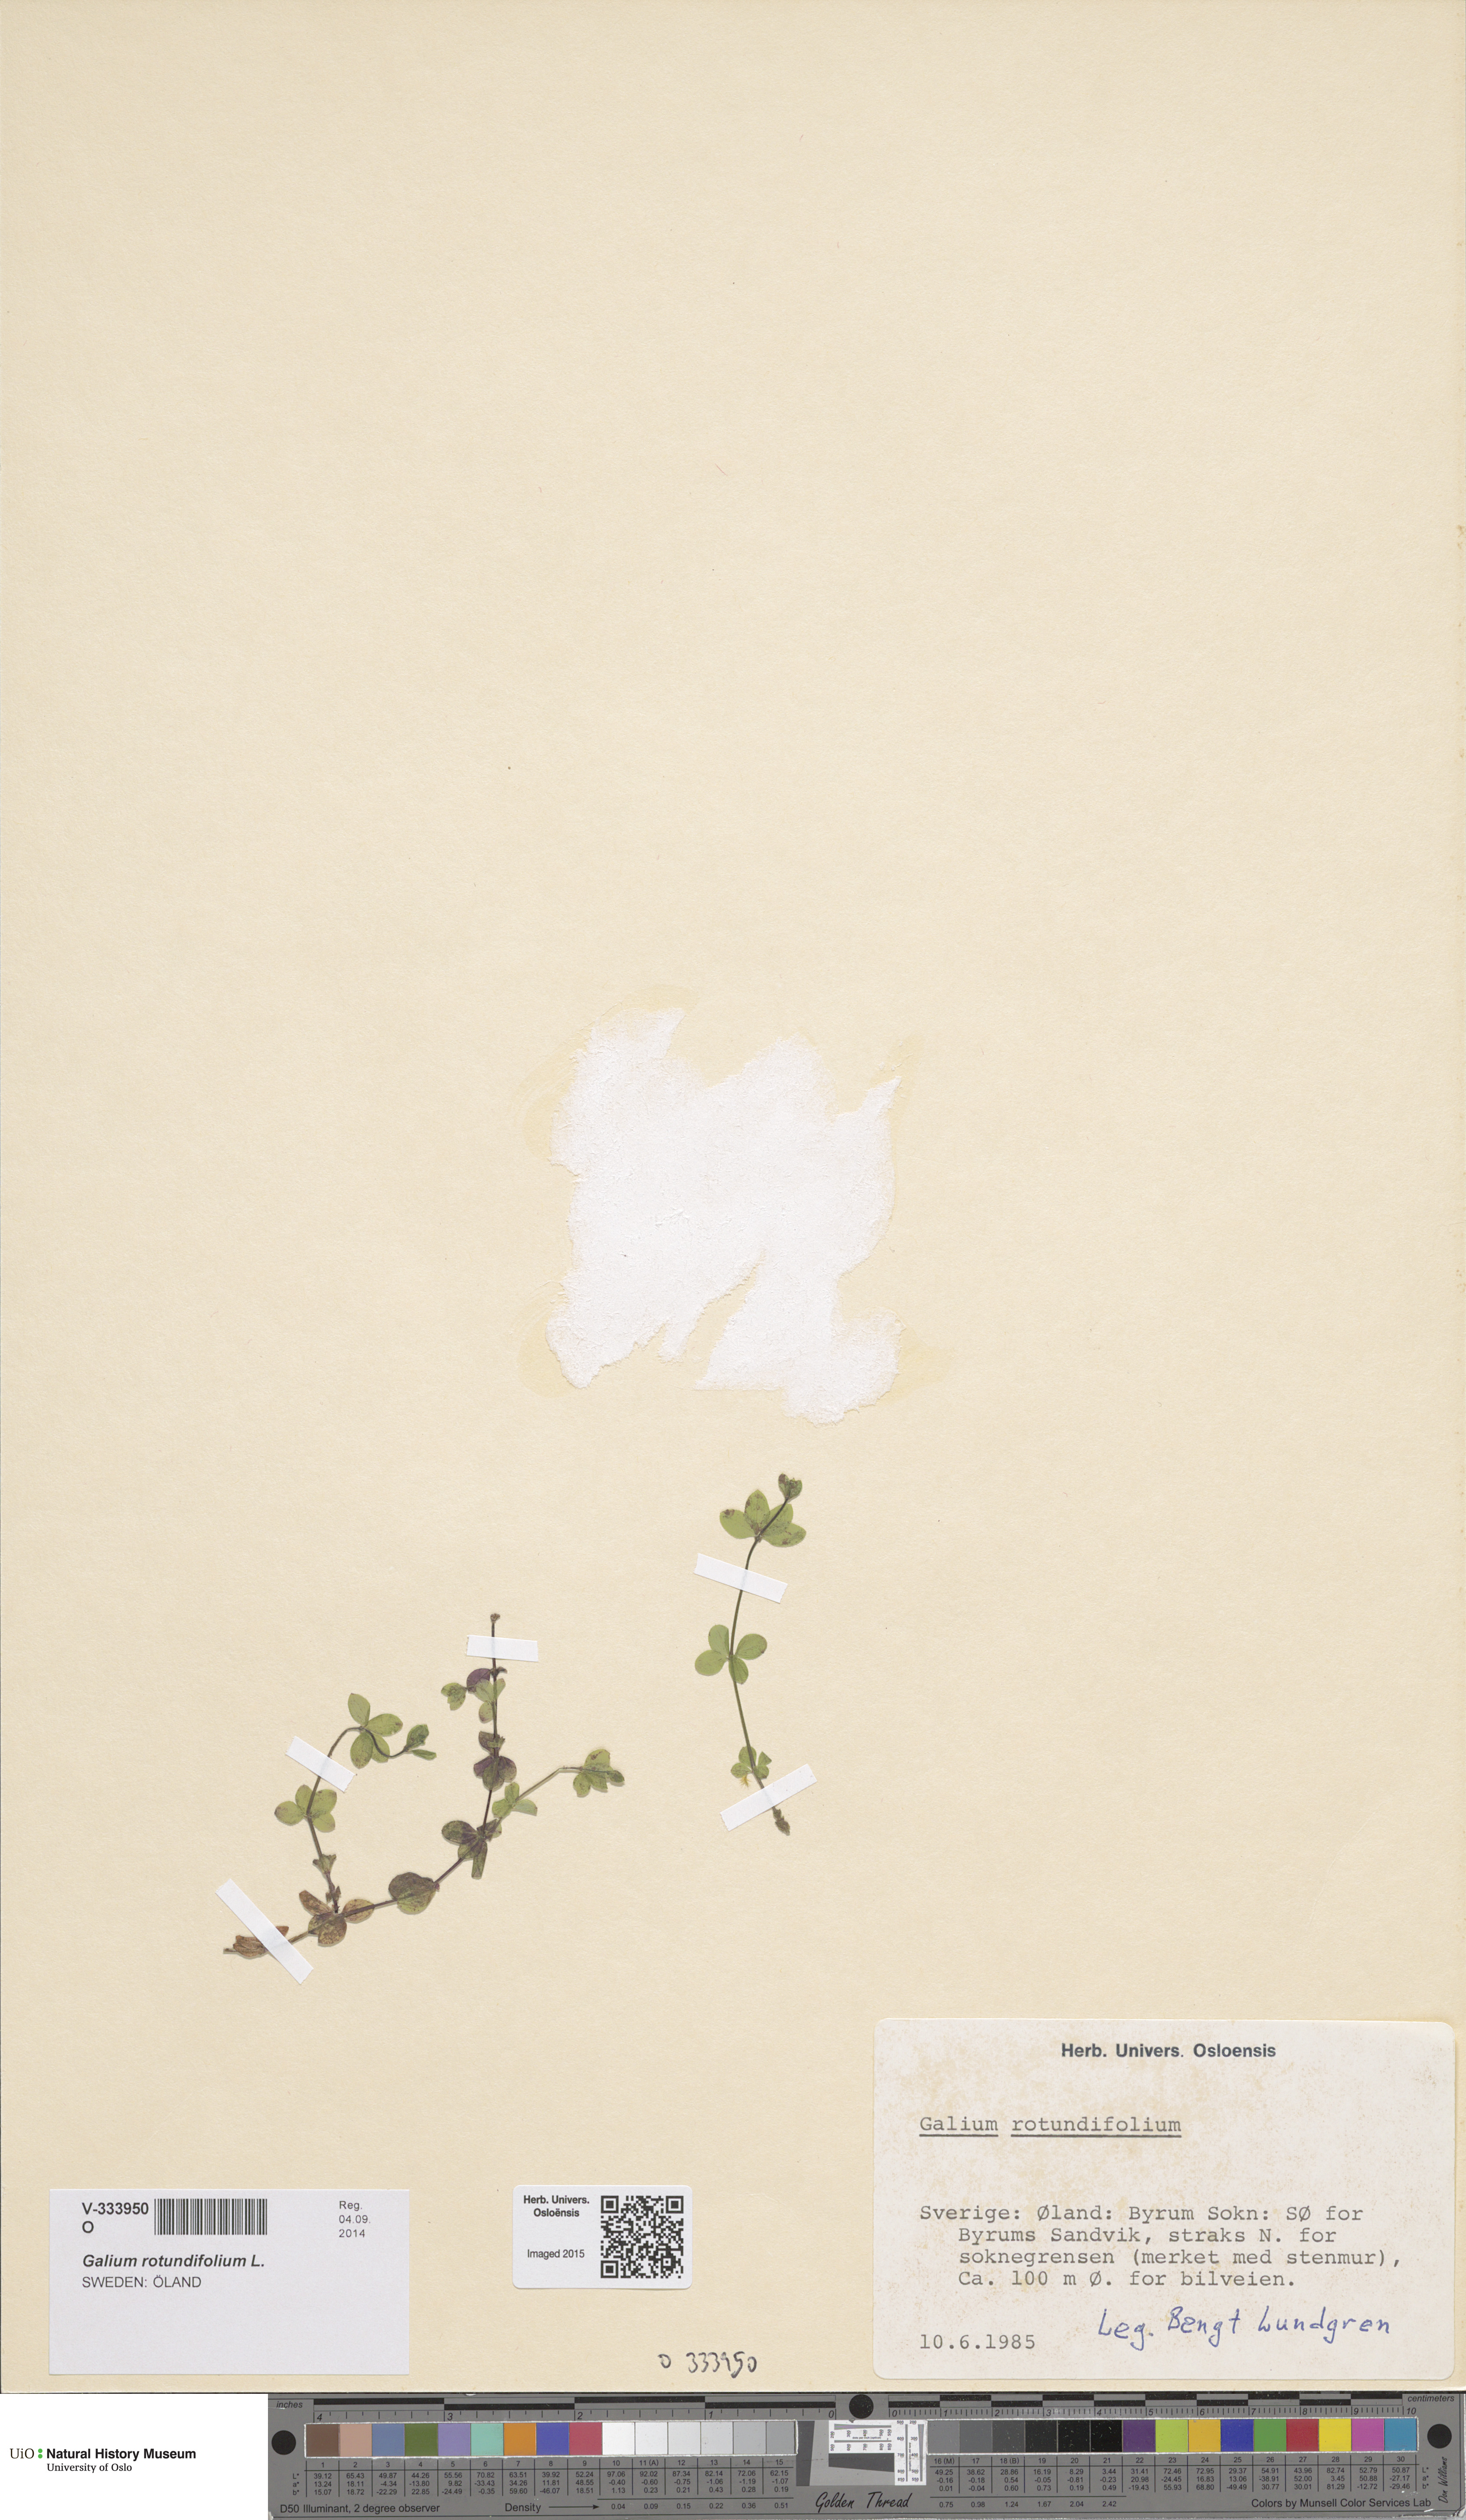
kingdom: Plantae
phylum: Tracheophyta
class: Magnoliopsida
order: Gentianales
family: Rubiaceae
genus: Galium
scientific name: Galium rotundifolium
